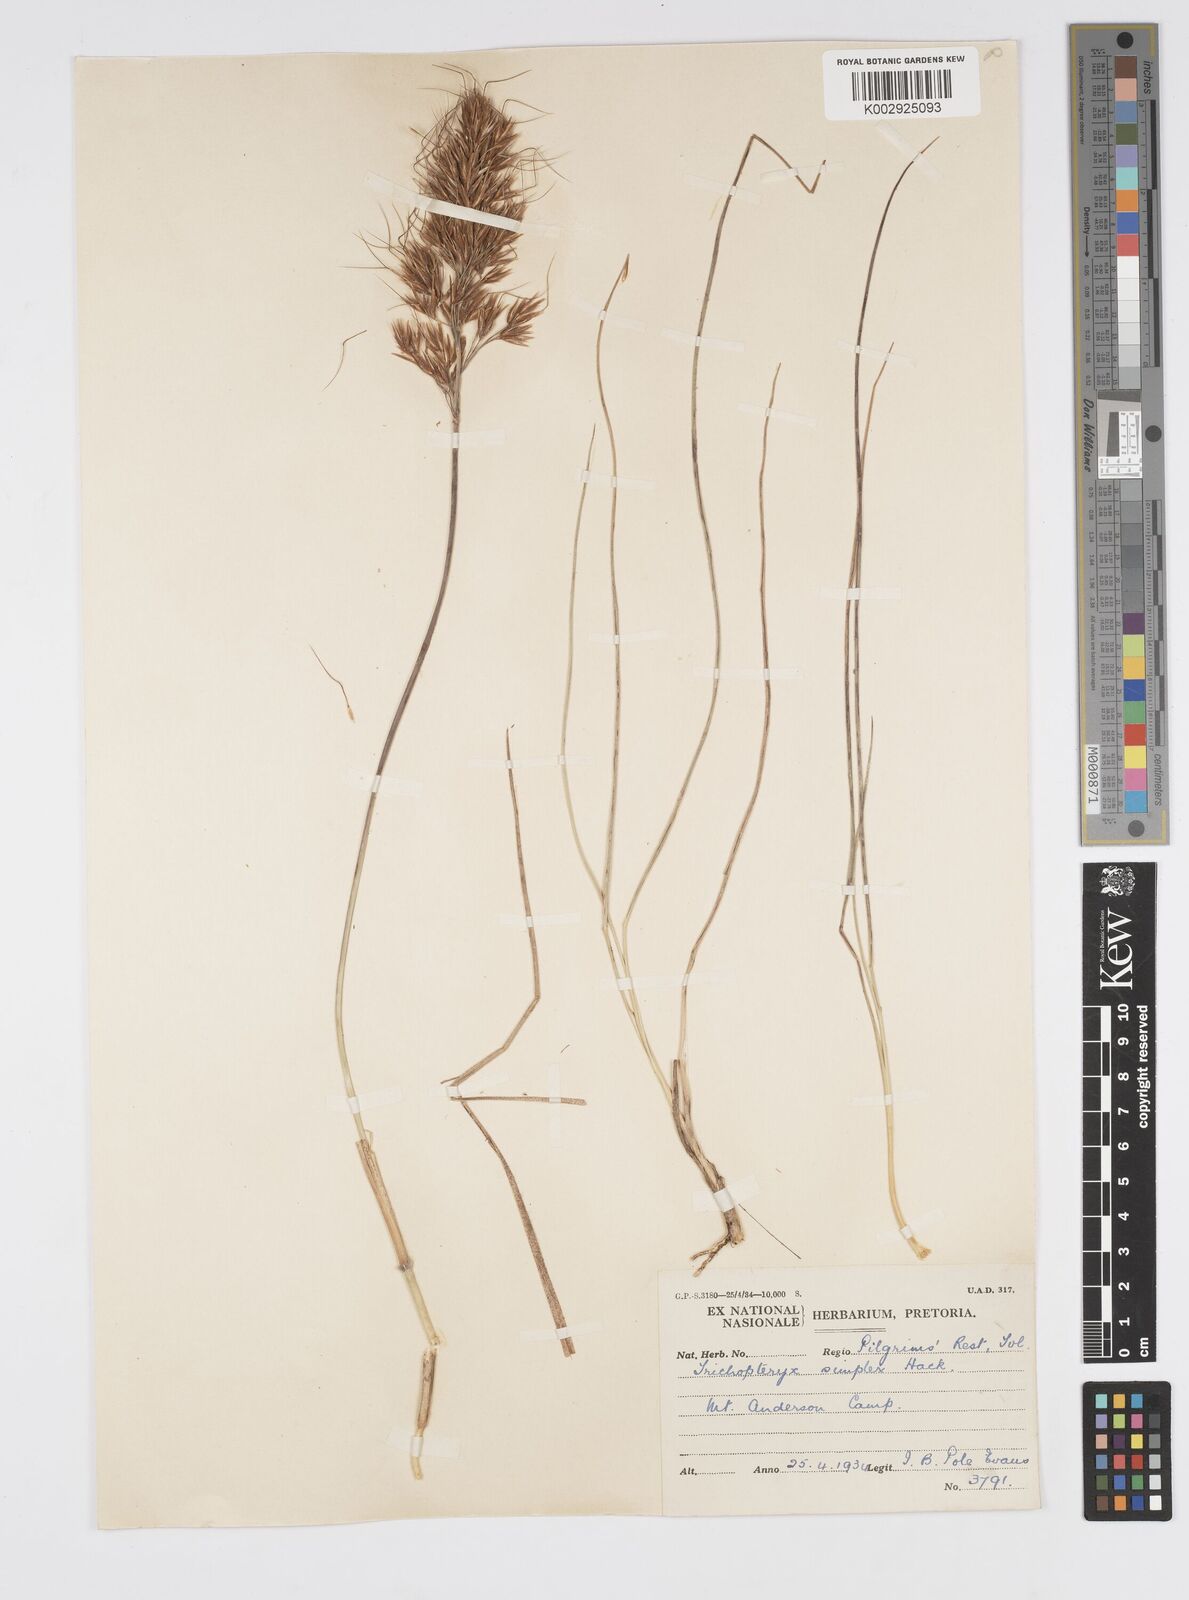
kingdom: Plantae
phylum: Tracheophyta
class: Liliopsida
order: Poales
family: Poaceae
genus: Loudetia
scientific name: Loudetia simplex
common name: Common russet grass
